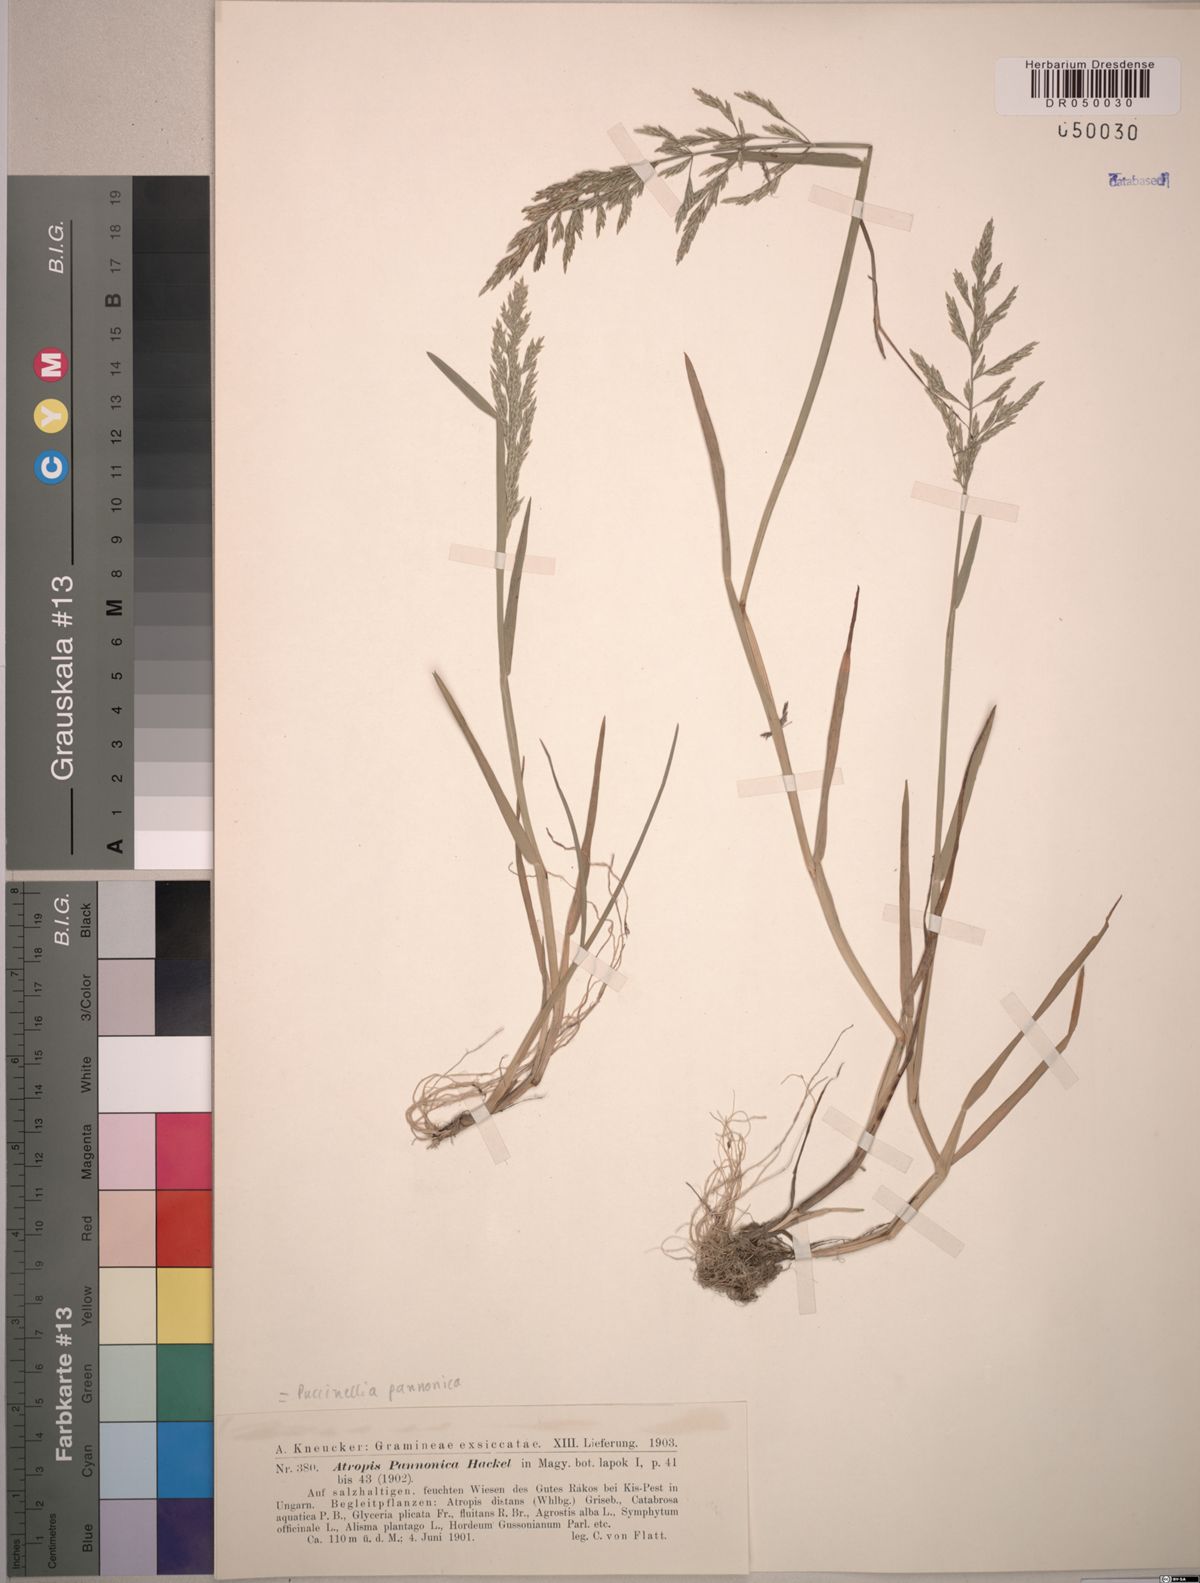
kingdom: Plantae
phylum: Tracheophyta
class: Liliopsida
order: Poales
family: Poaceae
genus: Puccinellia
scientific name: Puccinellia pannonica
